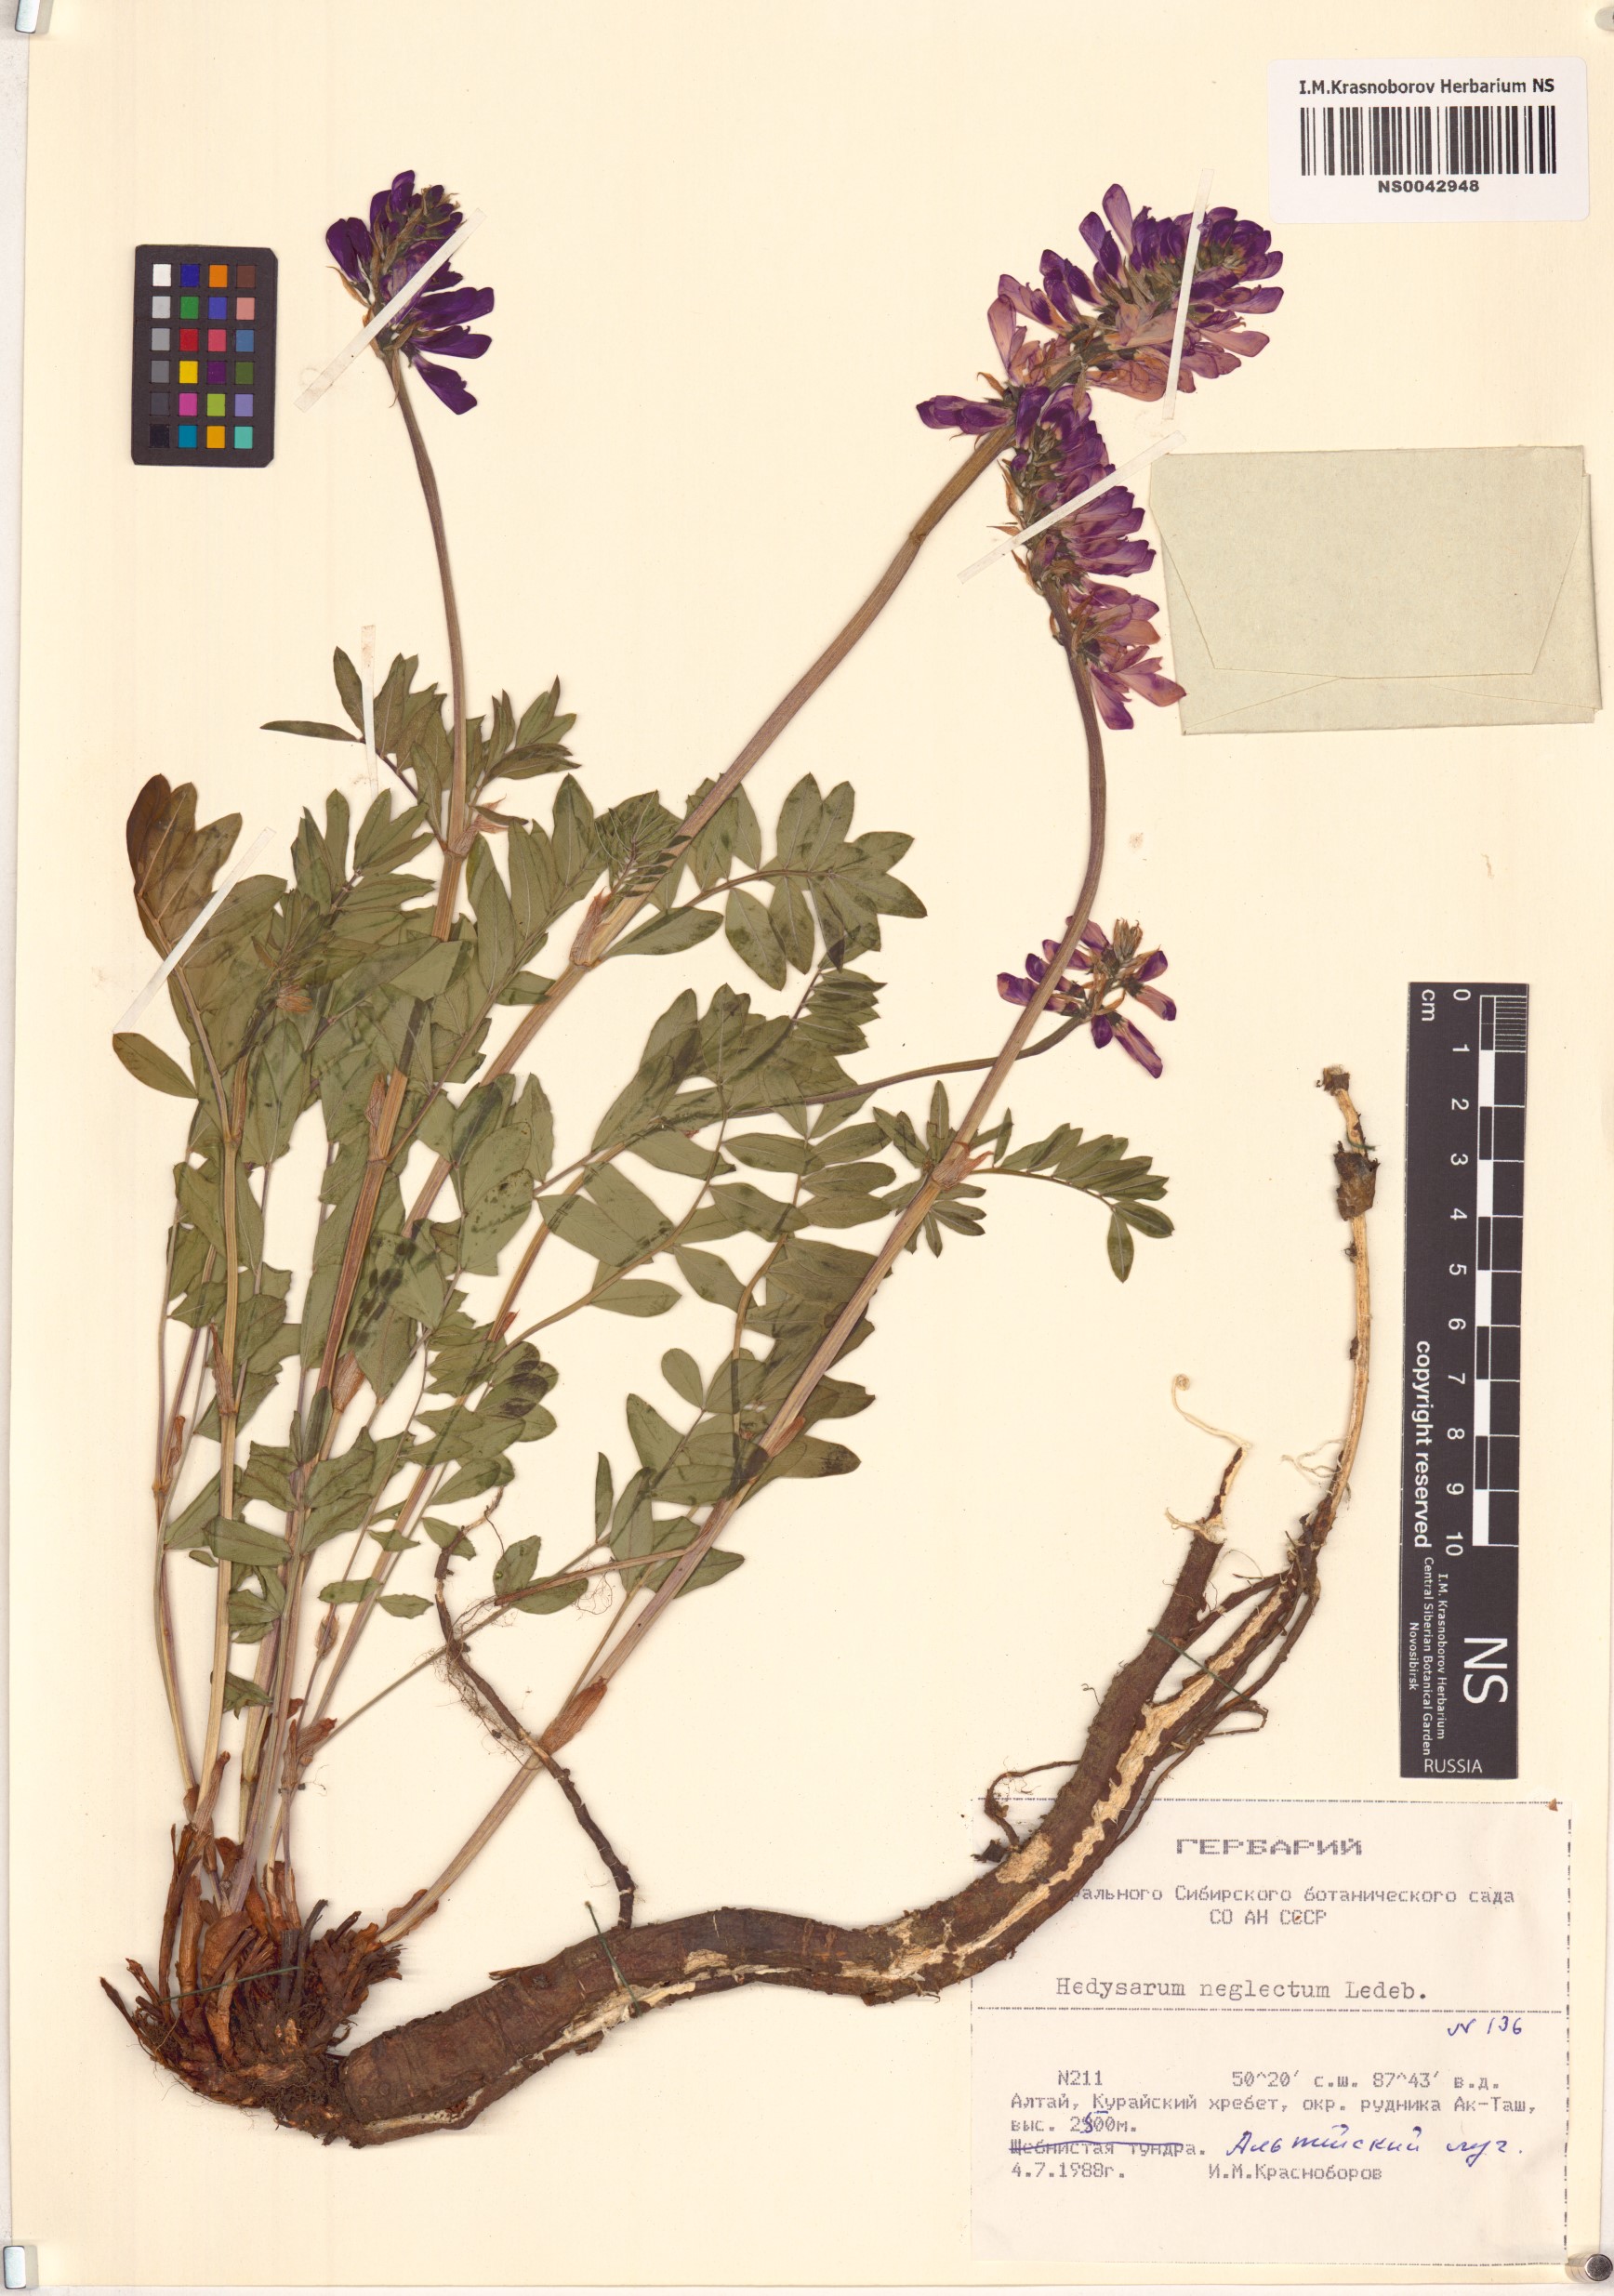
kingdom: Plantae
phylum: Tracheophyta
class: Magnoliopsida
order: Fabales
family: Fabaceae
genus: Hedysarum
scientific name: Hedysarum neglectum
